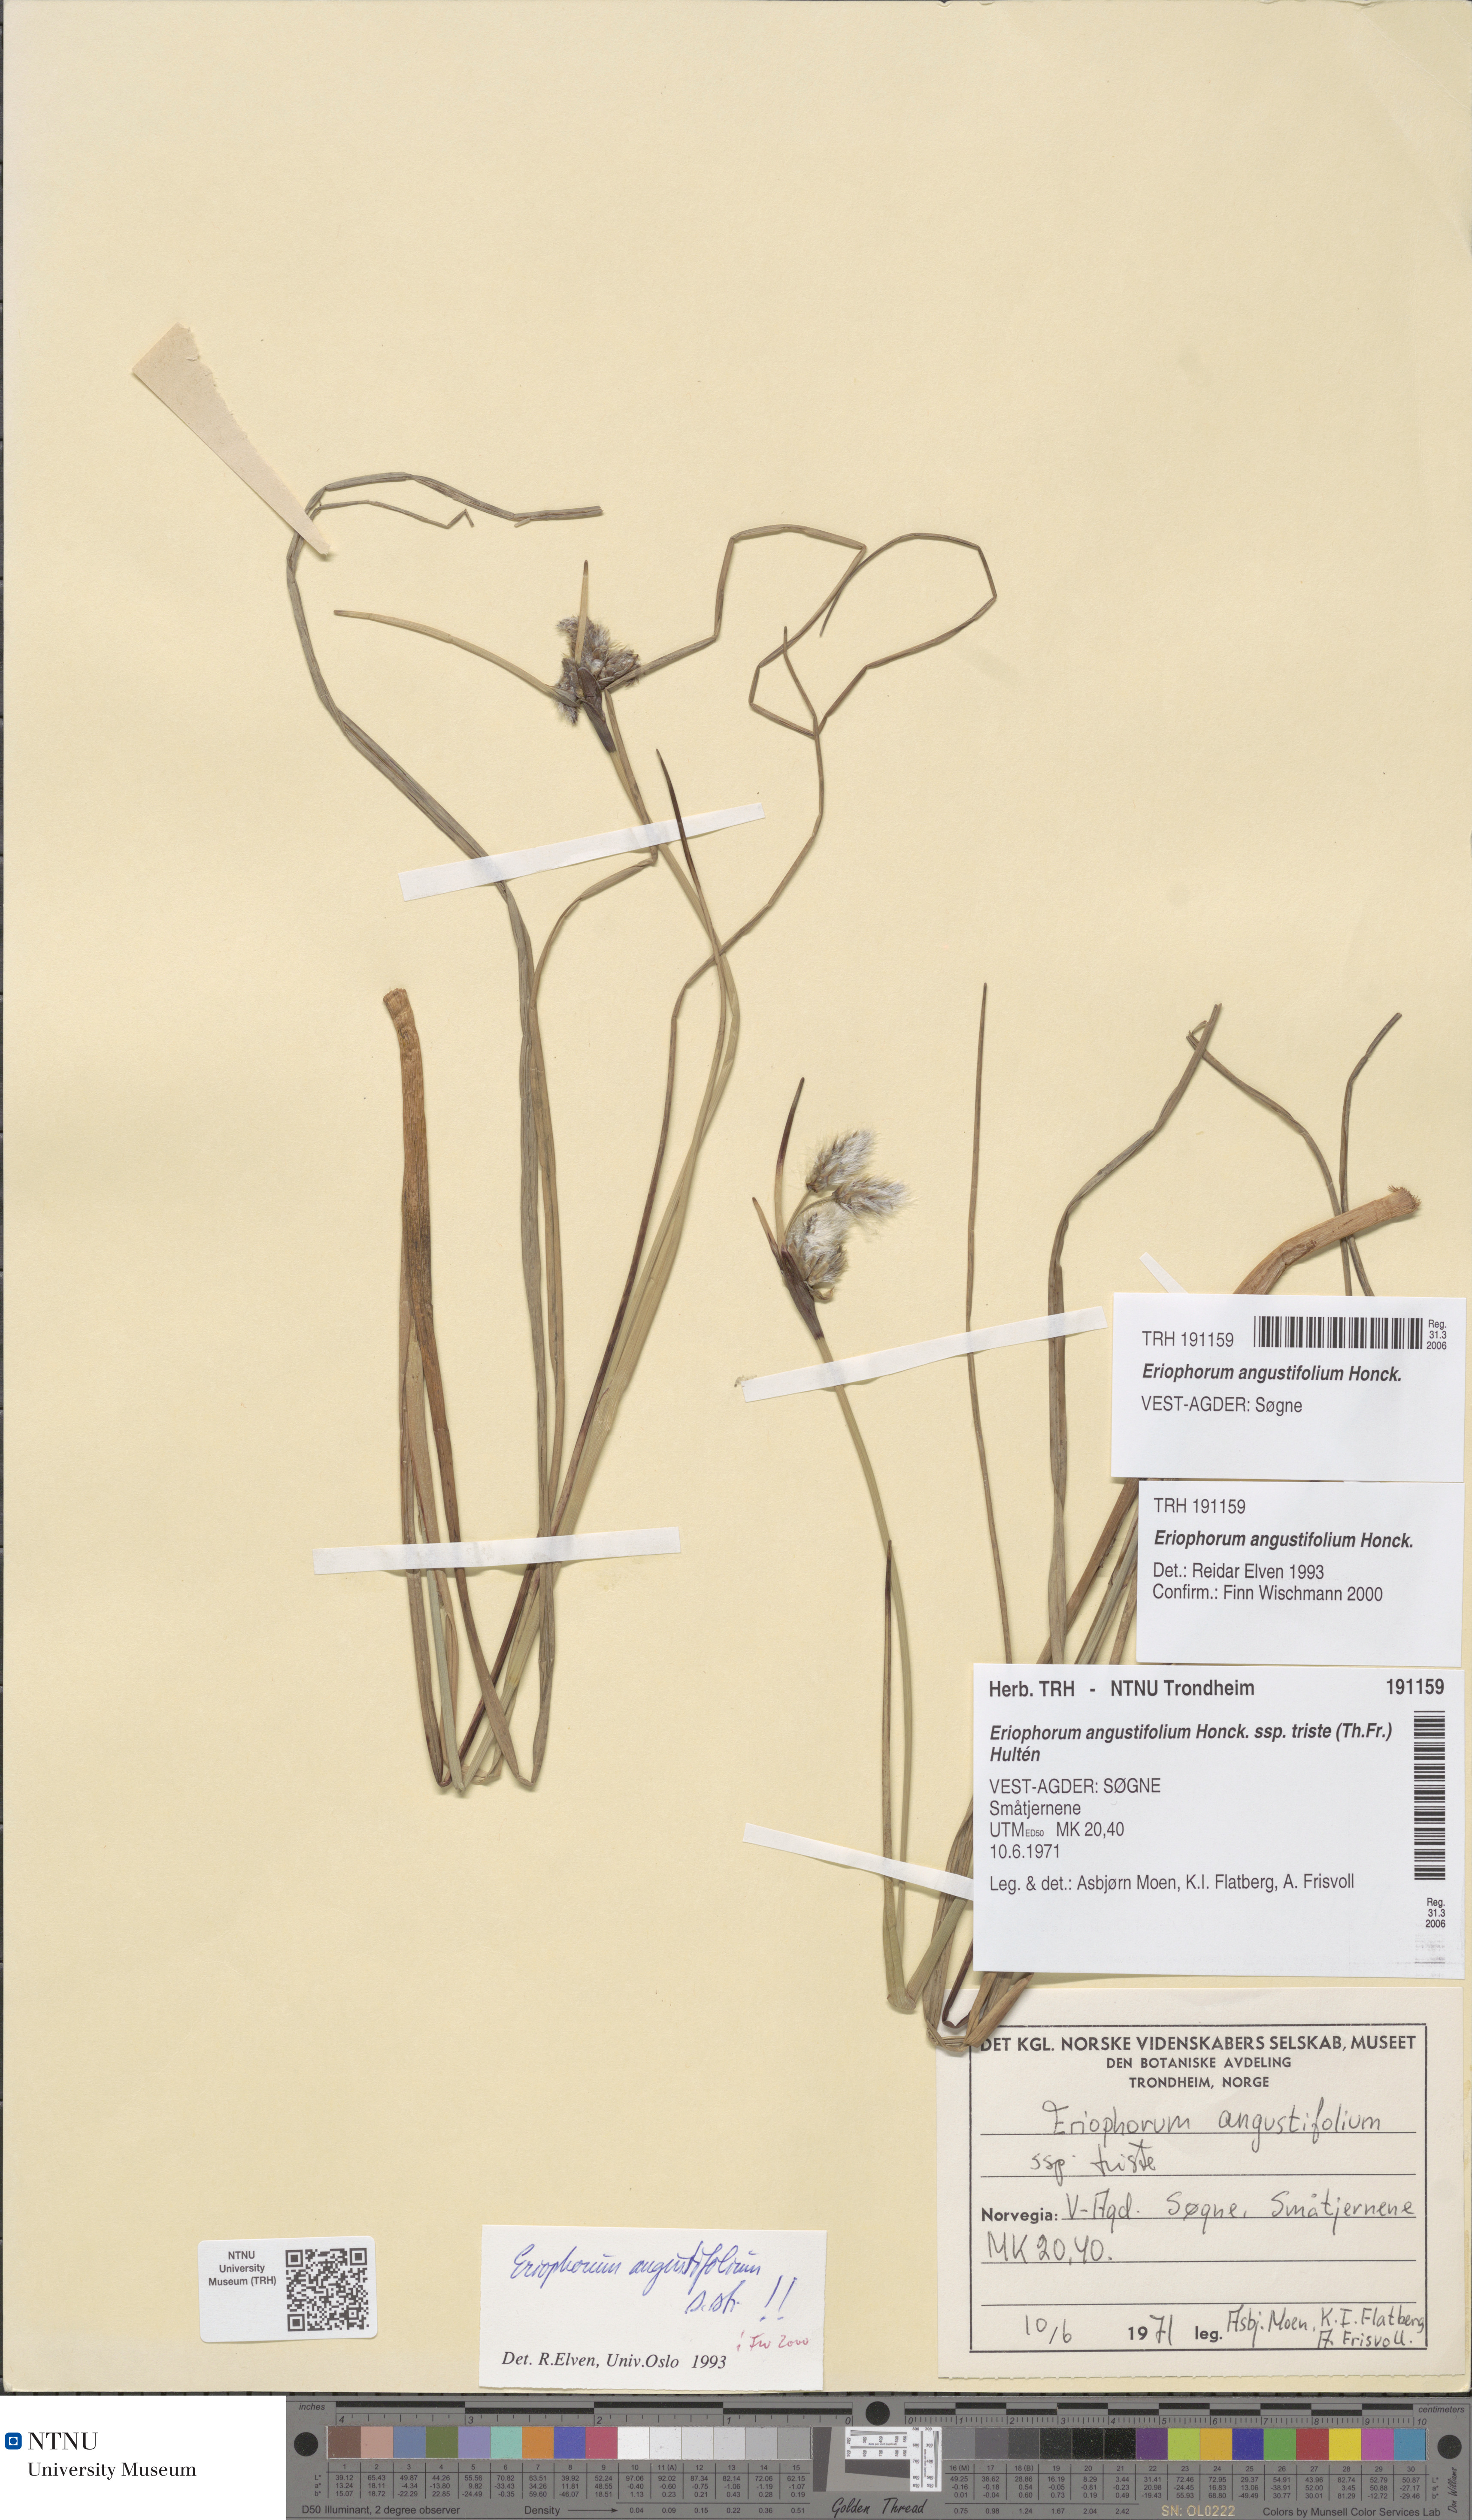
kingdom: Plantae
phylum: Tracheophyta
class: Liliopsida
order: Poales
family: Cyperaceae
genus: Eriophorum
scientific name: Eriophorum angustifolium
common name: Common cottongrass
